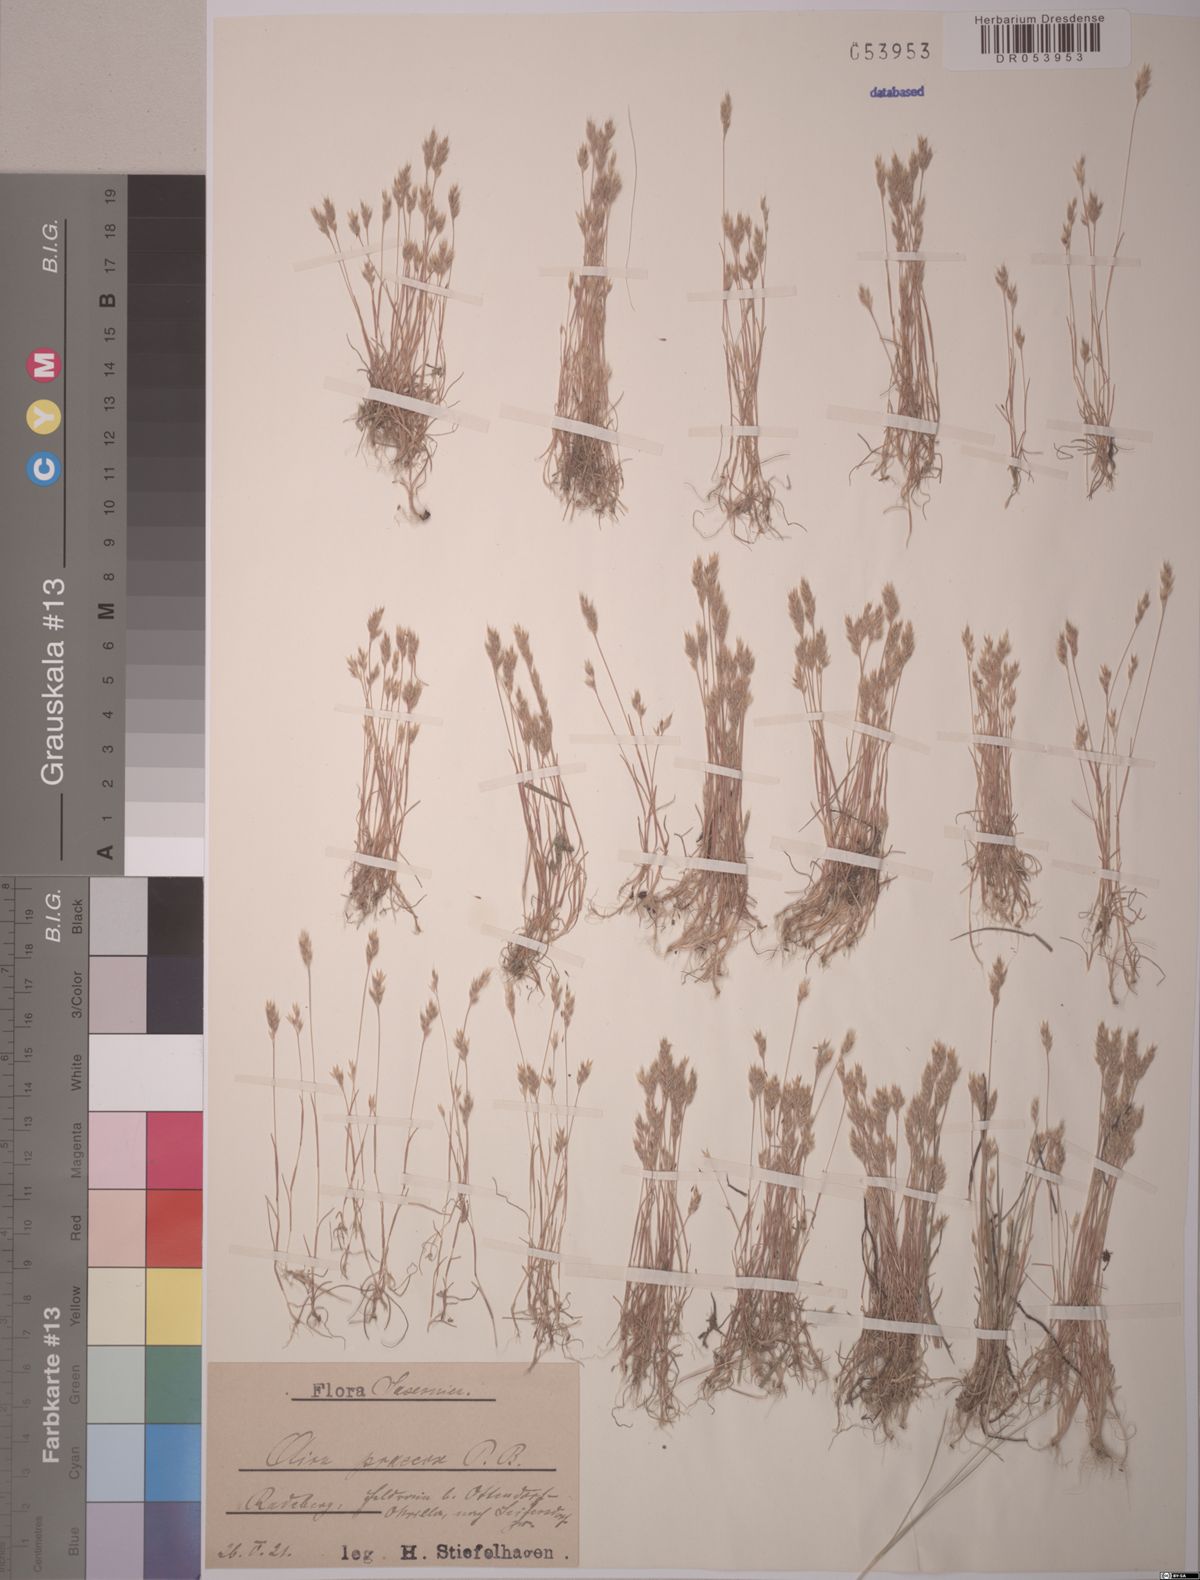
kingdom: Plantae
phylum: Tracheophyta
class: Liliopsida
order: Poales
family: Poaceae
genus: Aira
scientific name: Aira praecox
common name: Early hair-grass
